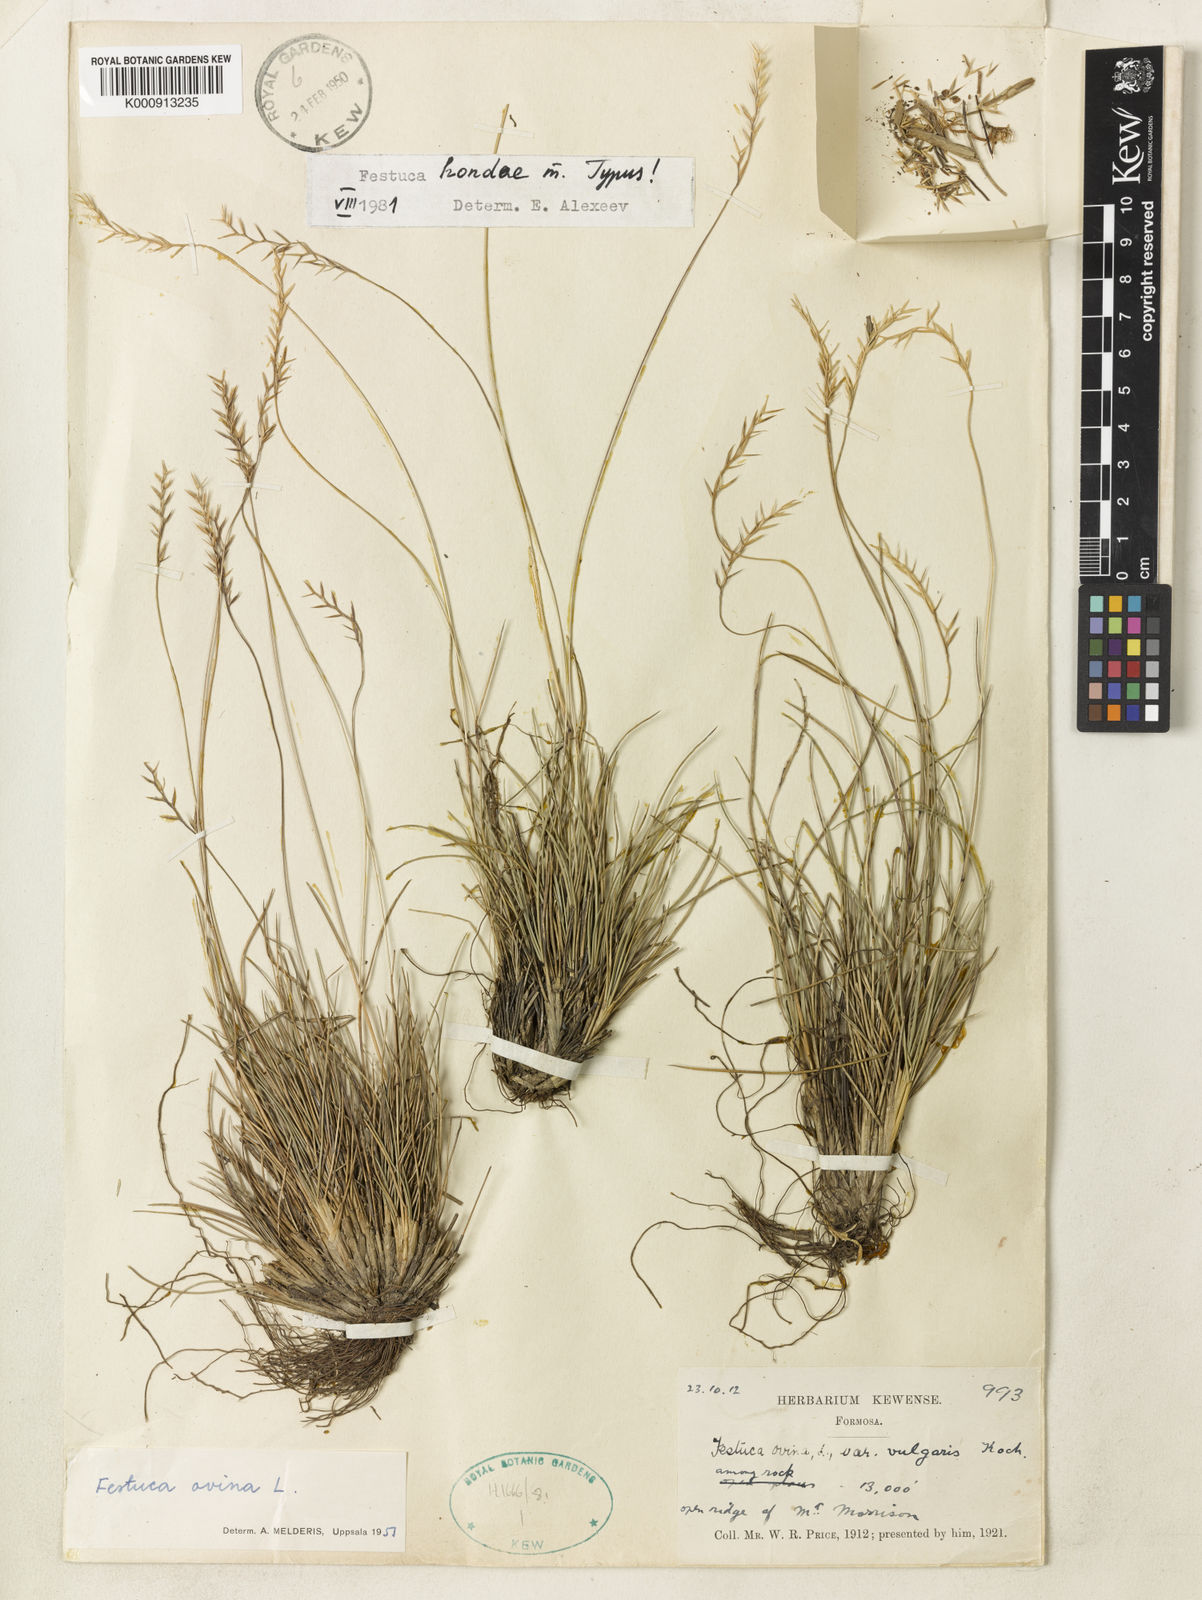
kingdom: Plantae
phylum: Tracheophyta
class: Liliopsida
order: Poales
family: Poaceae
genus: Festuca
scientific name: Festuca hondae
